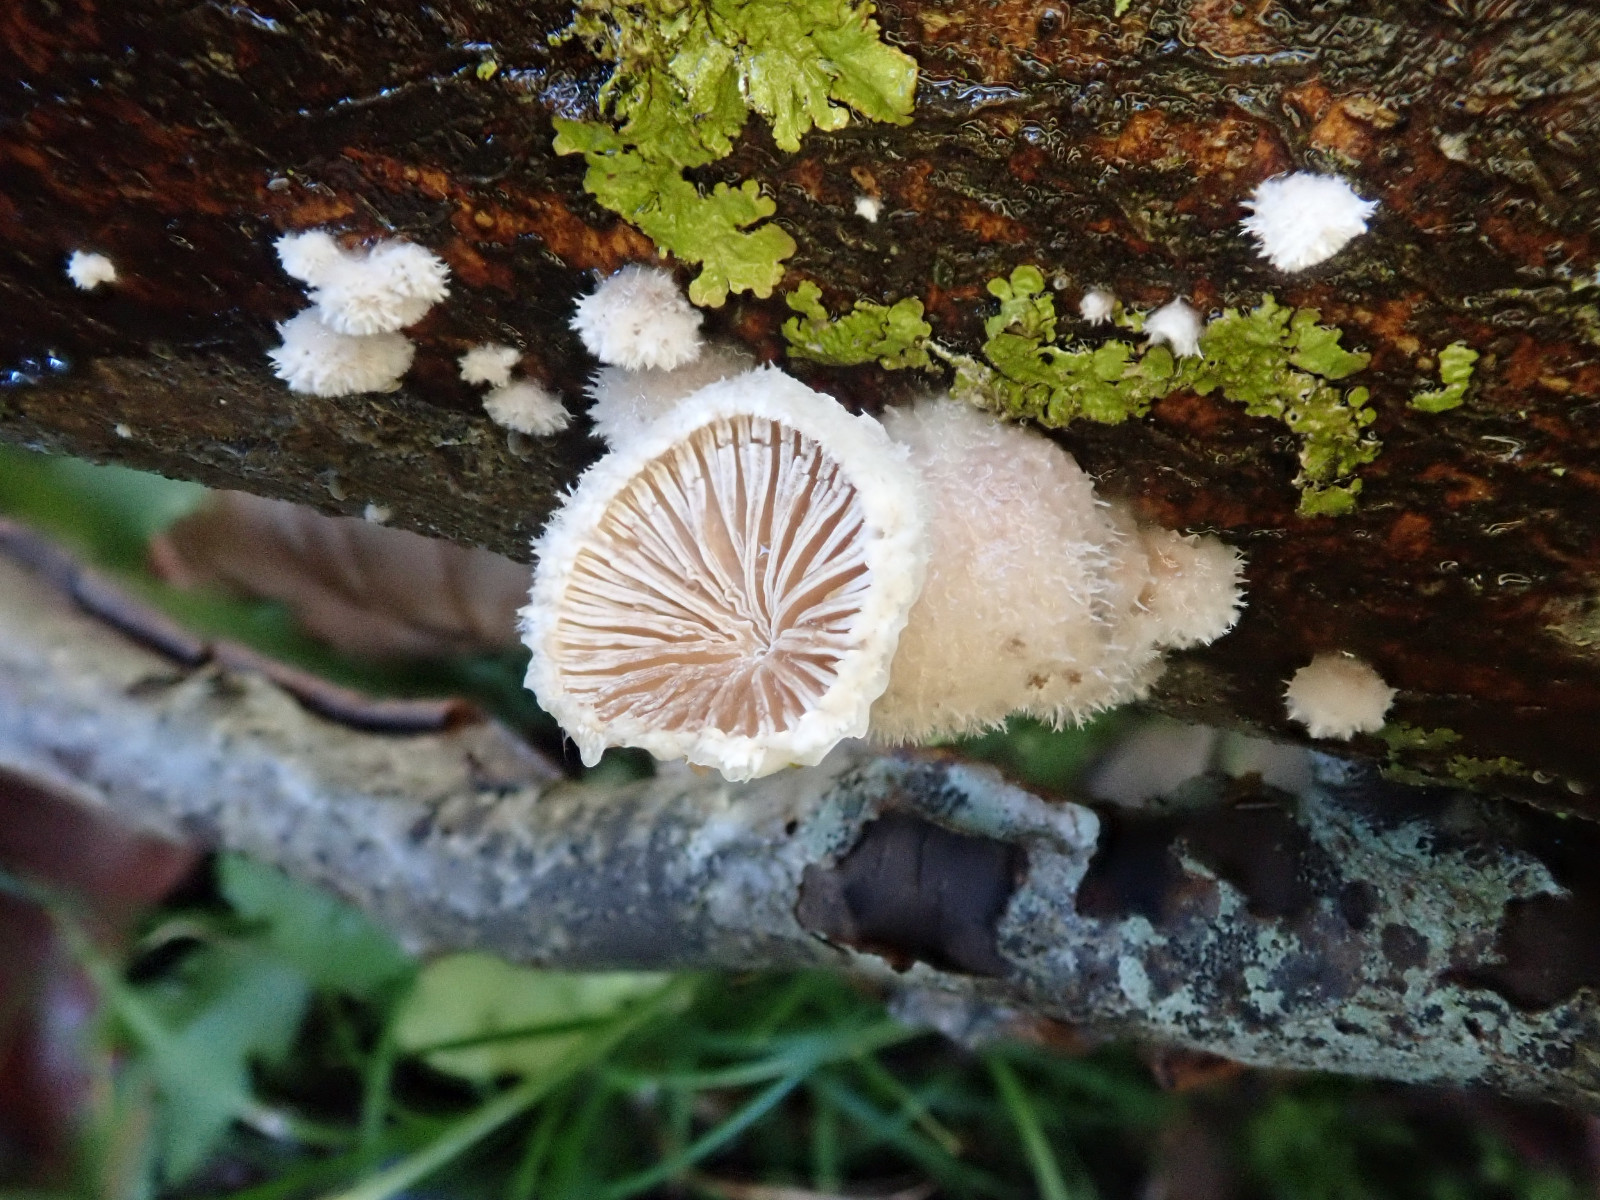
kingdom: Fungi
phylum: Basidiomycota
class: Agaricomycetes
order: Agaricales
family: Schizophyllaceae
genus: Schizophyllum
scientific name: Schizophyllum commune
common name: kløvblad
